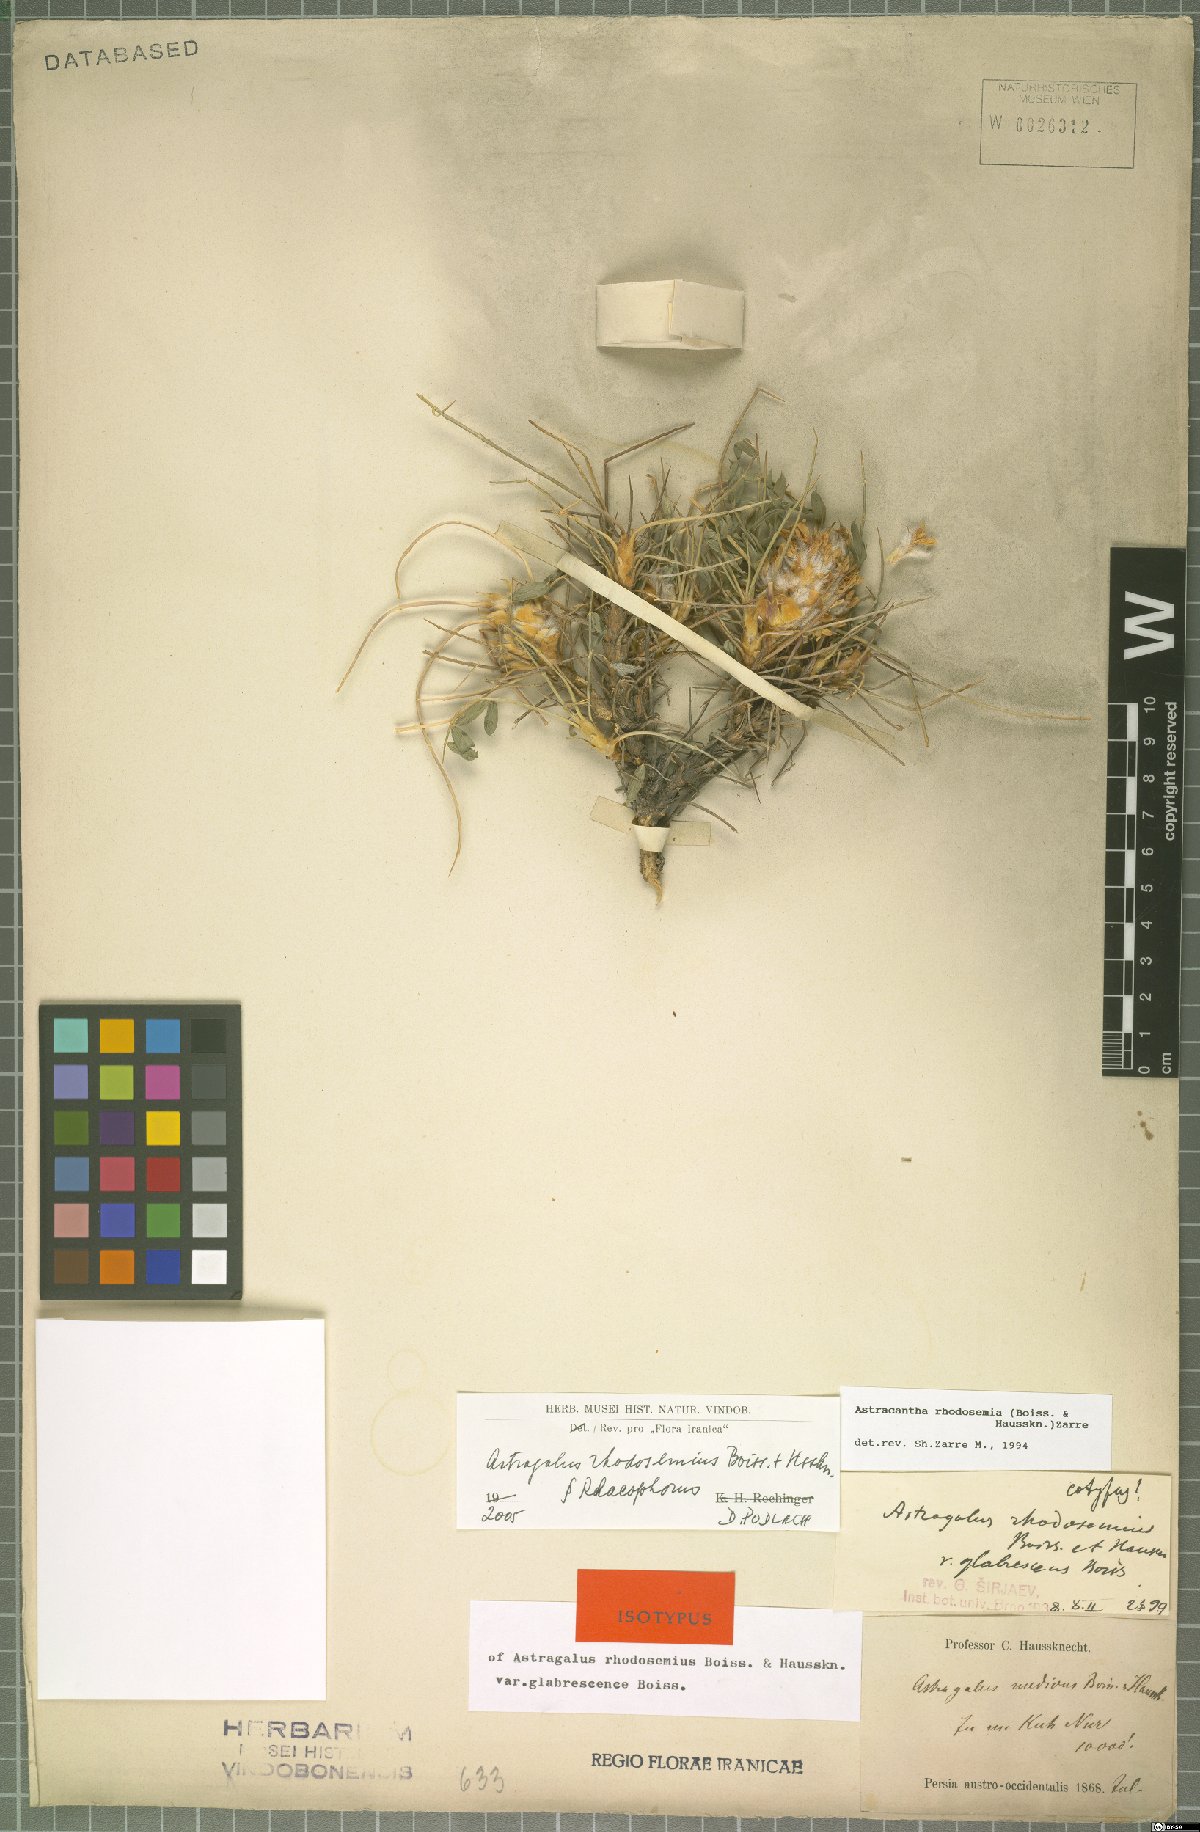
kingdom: Plantae
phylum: Tracheophyta
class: Magnoliopsida
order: Fabales
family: Fabaceae
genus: Astragalus
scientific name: Astragalus rhodosemius
